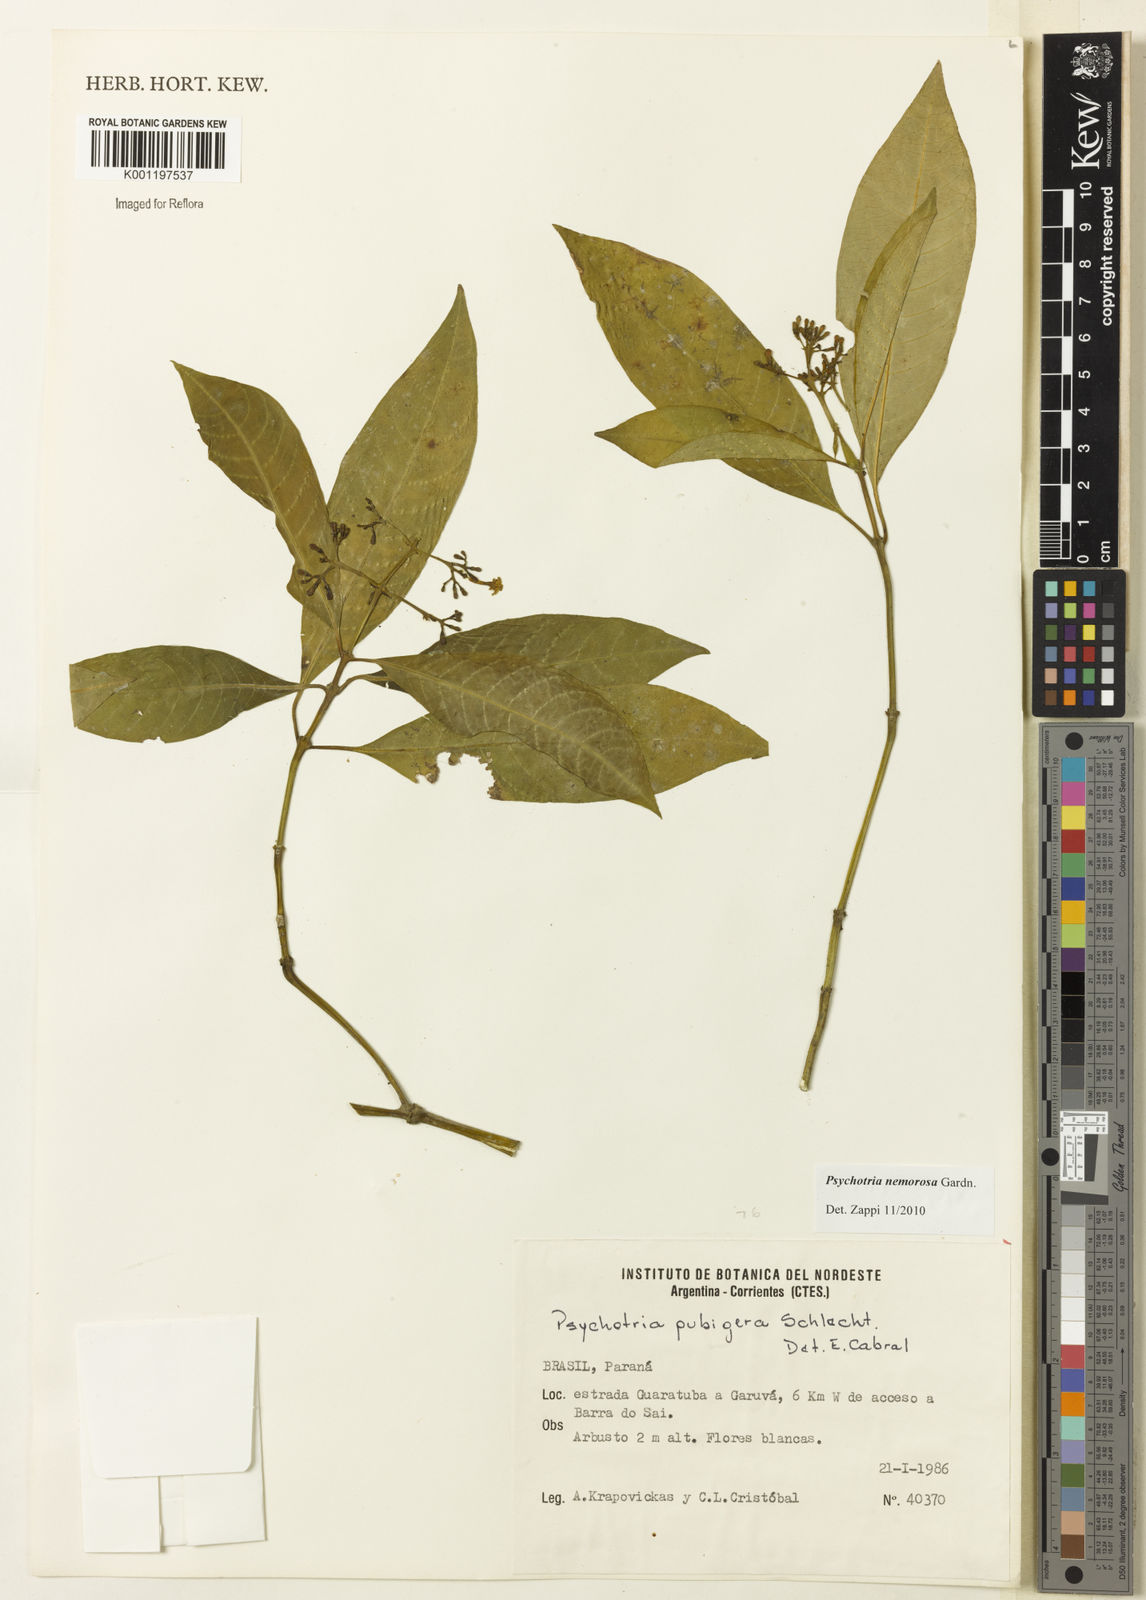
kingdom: Plantae
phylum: Tracheophyta
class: Magnoliopsida
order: Gentianales
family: Rubiaceae
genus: Psychotria
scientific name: Psychotria nemorosa
